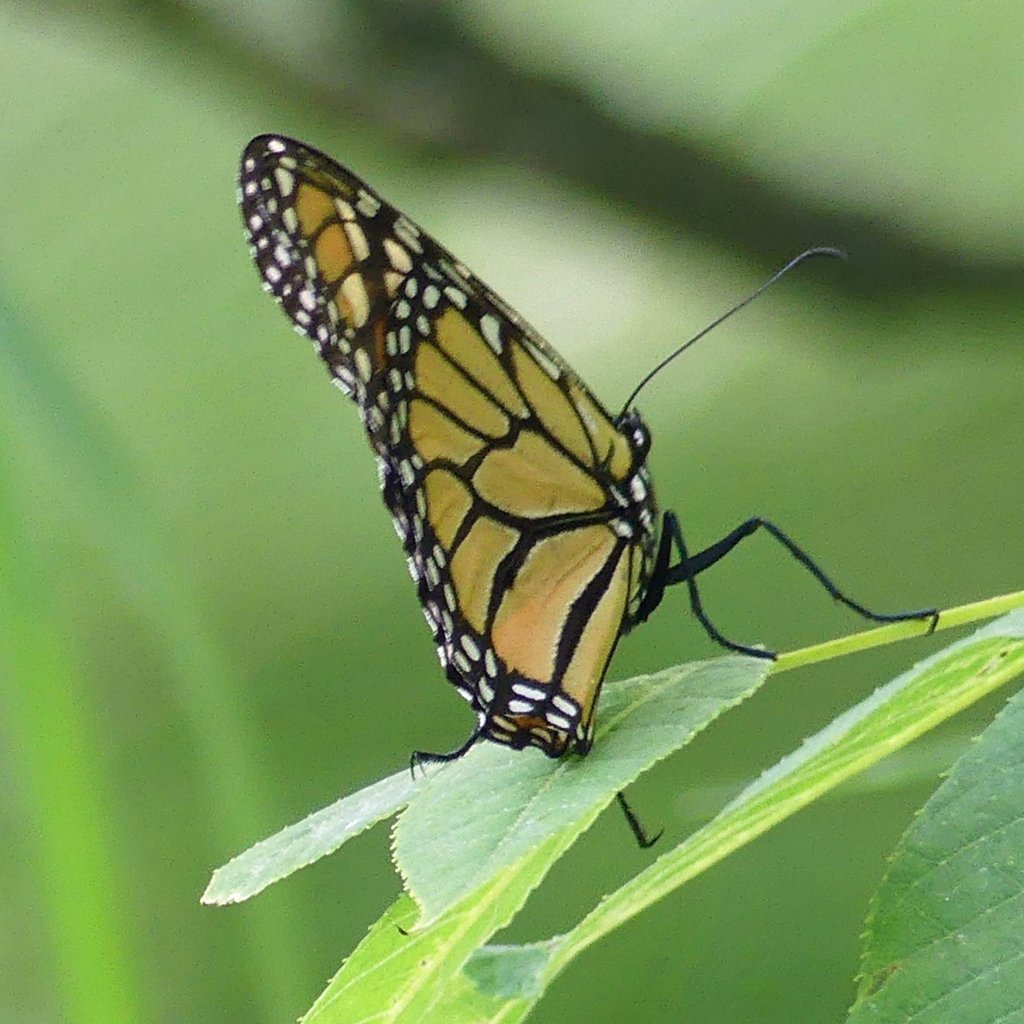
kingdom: Animalia
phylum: Arthropoda
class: Insecta
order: Lepidoptera
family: Nymphalidae
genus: Danaus
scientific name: Danaus plexippus
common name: Monarch
